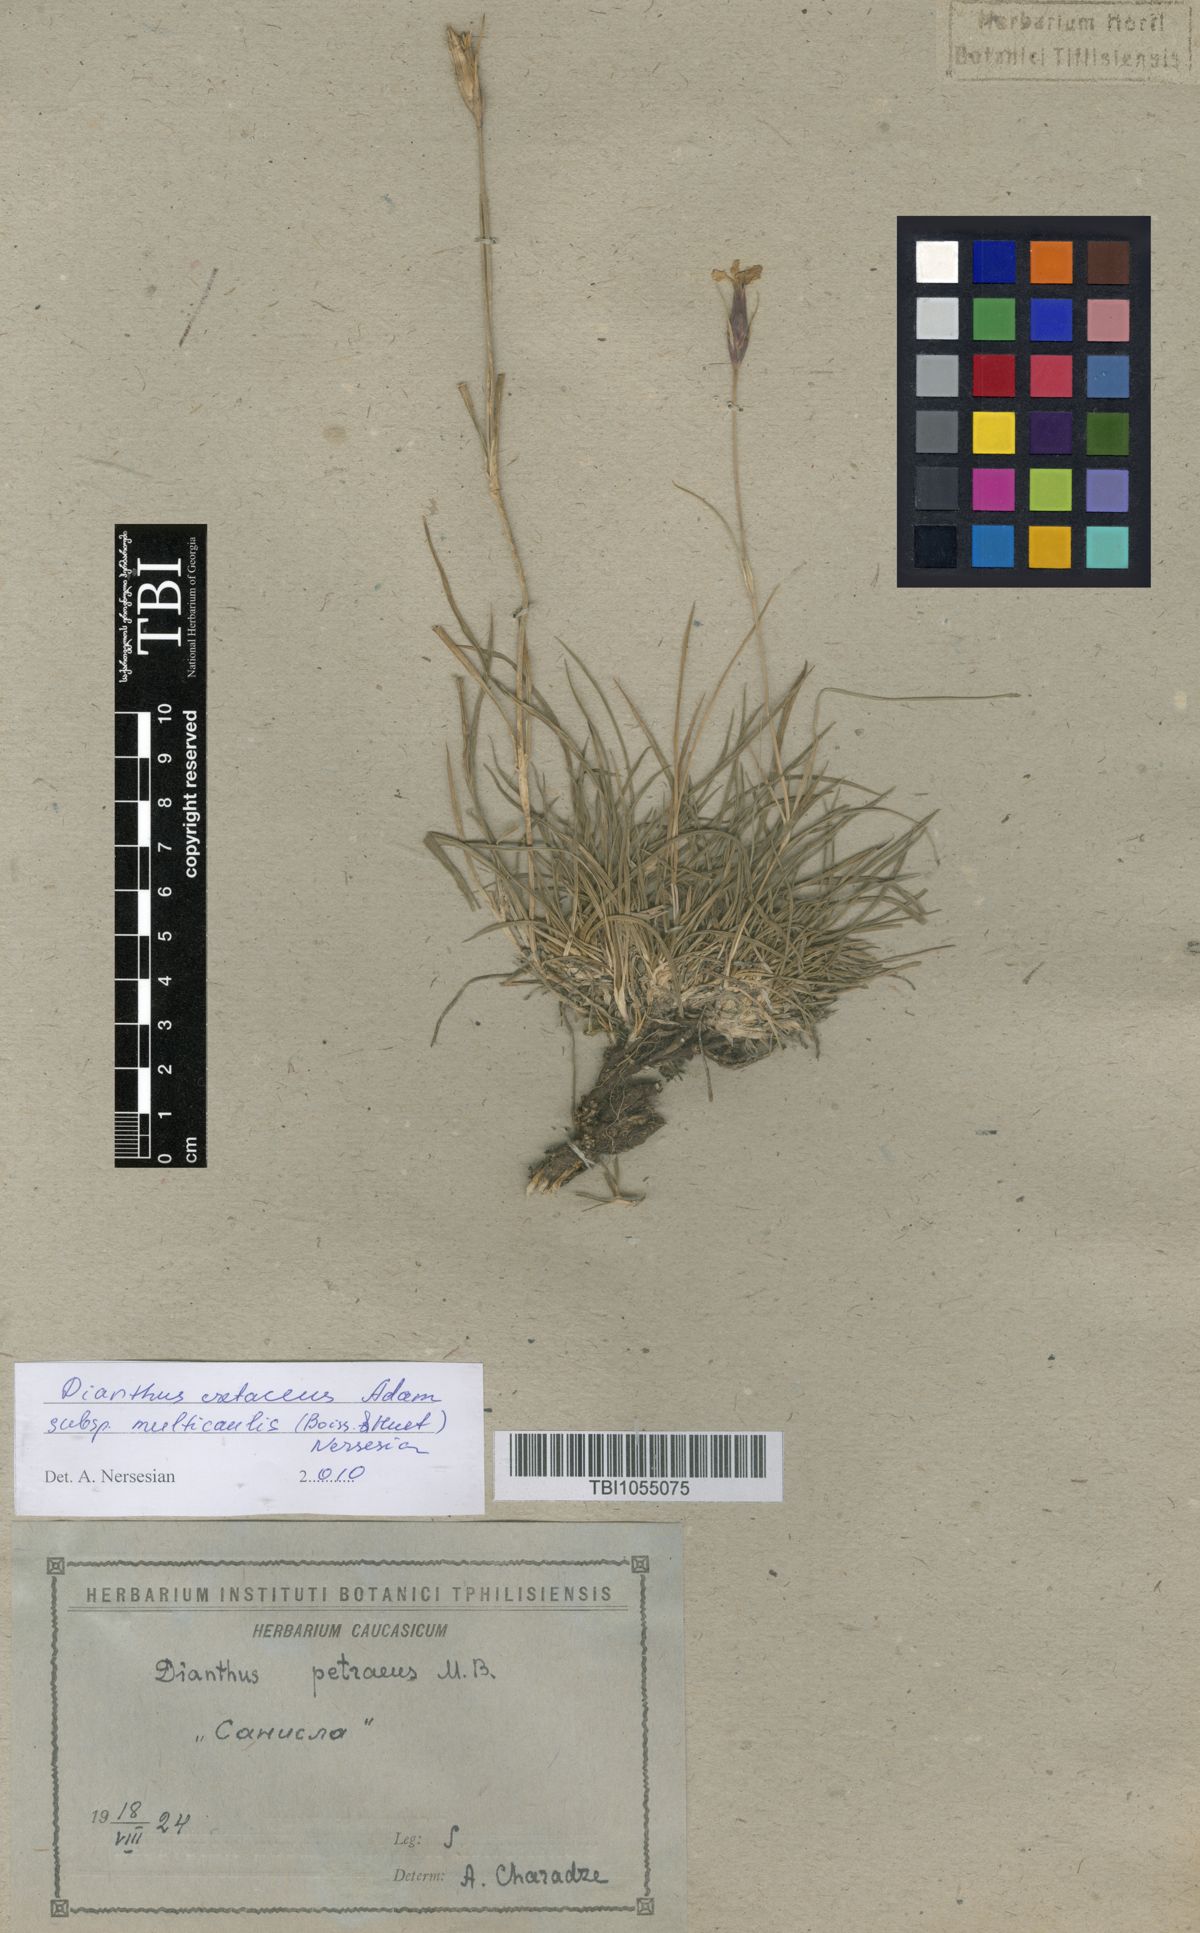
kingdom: Plantae
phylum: Tracheophyta
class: Magnoliopsida
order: Caryophyllales
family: Caryophyllaceae
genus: Dianthus
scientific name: Dianthus cretaceus
